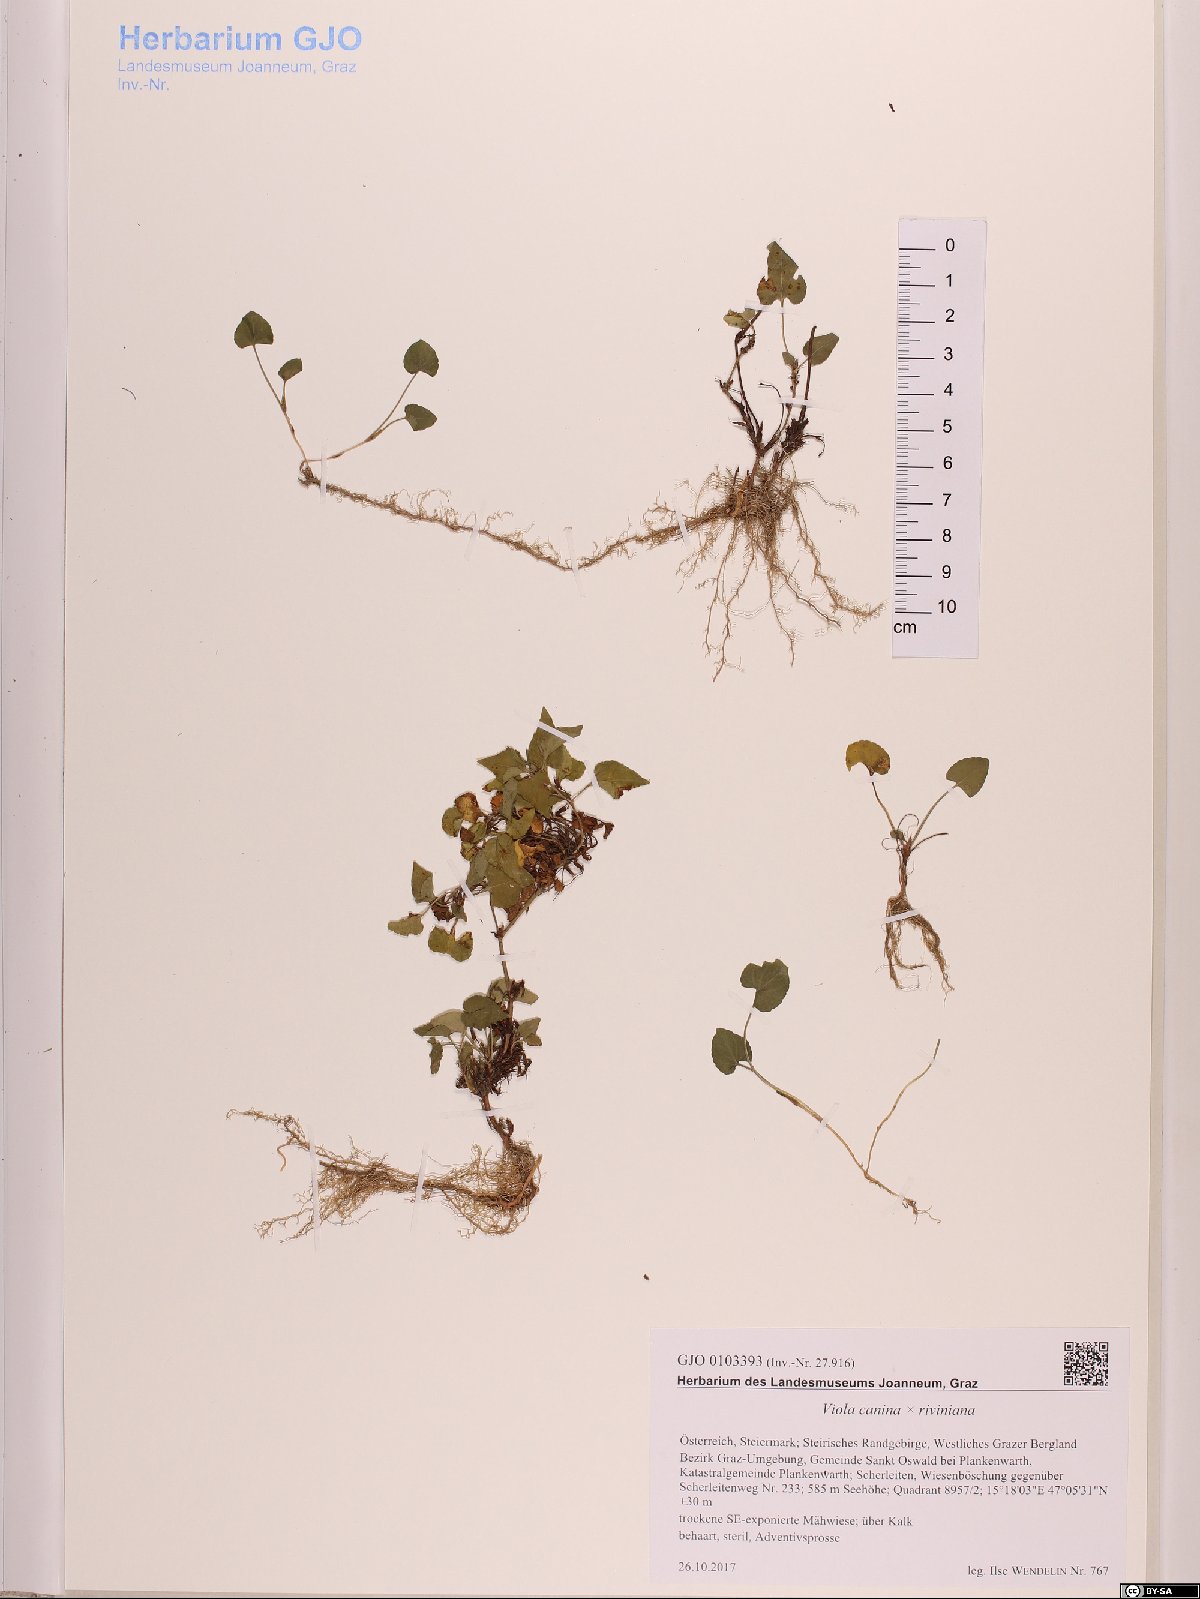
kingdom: Plantae
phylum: Tracheophyta
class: Magnoliopsida
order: Malpighiales
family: Violaceae
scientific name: Violaceae
